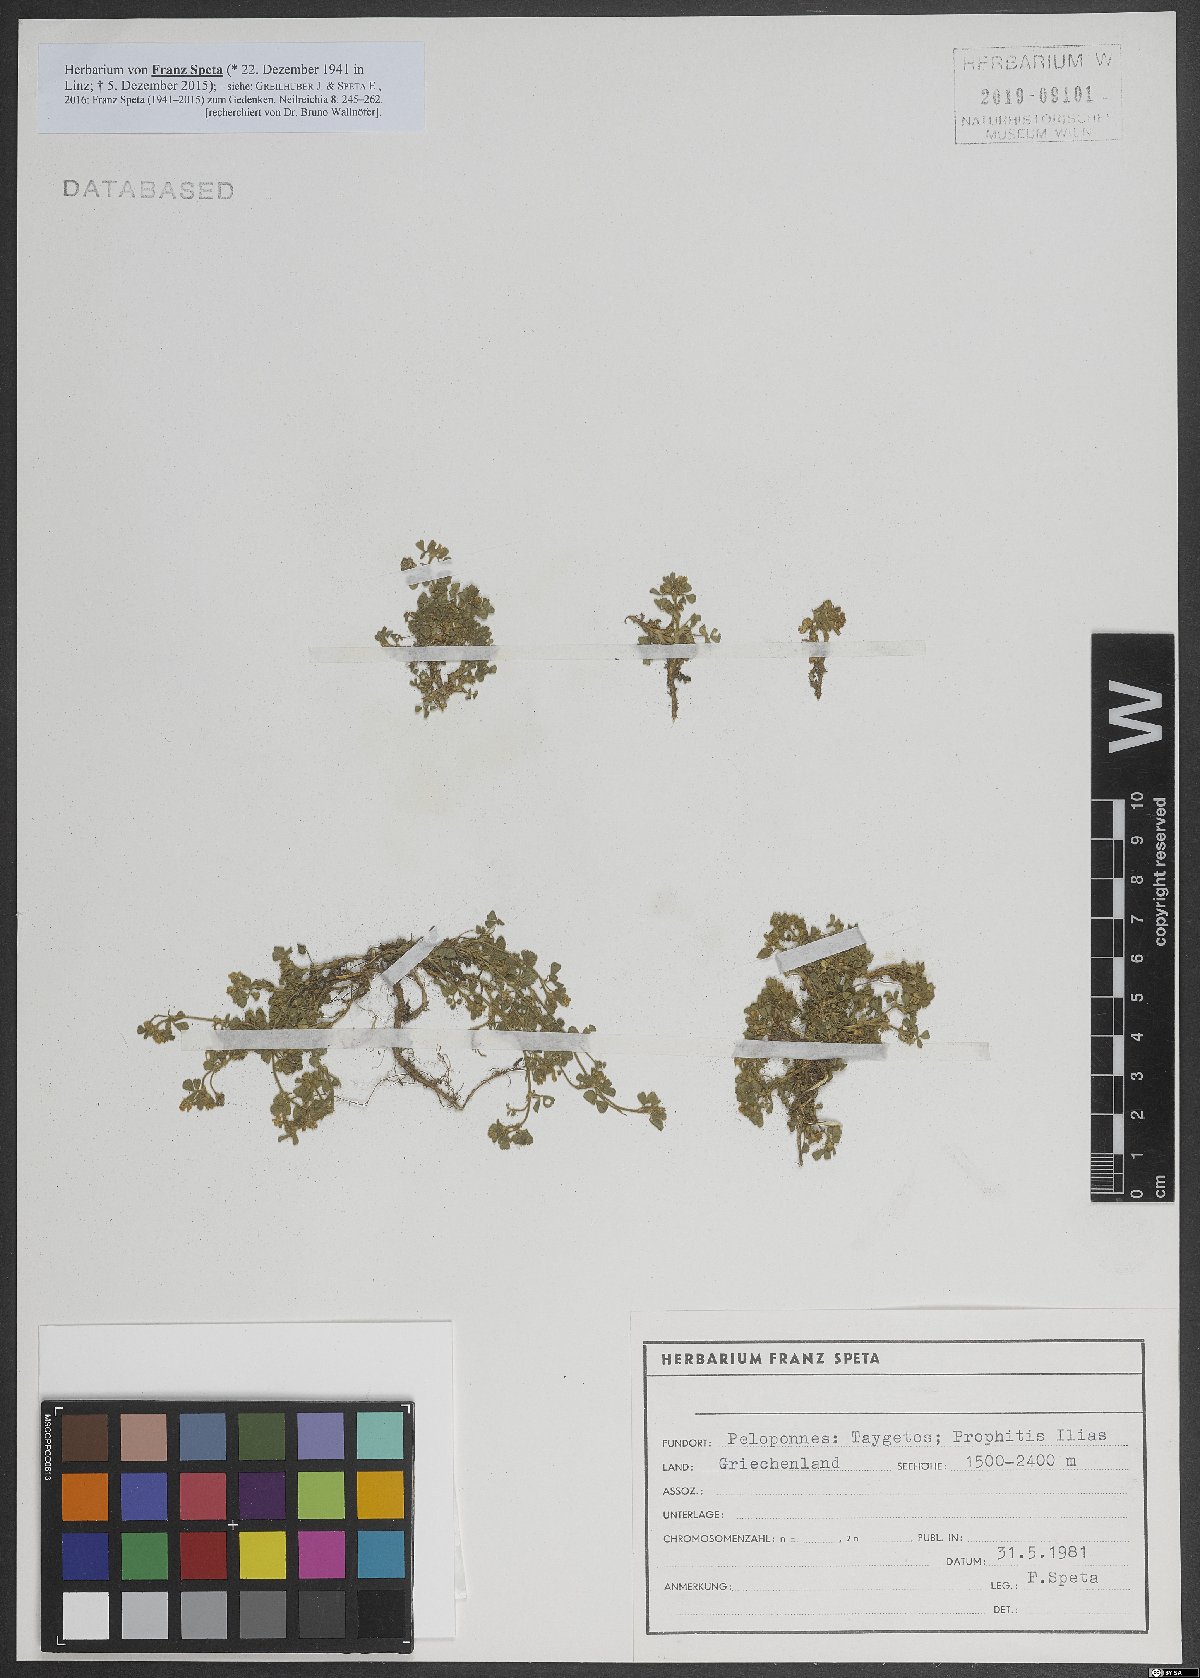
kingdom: Plantae
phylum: Tracheophyta
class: Magnoliopsida
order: Fabales
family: Fabaceae
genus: Medicago
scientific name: Medicago
